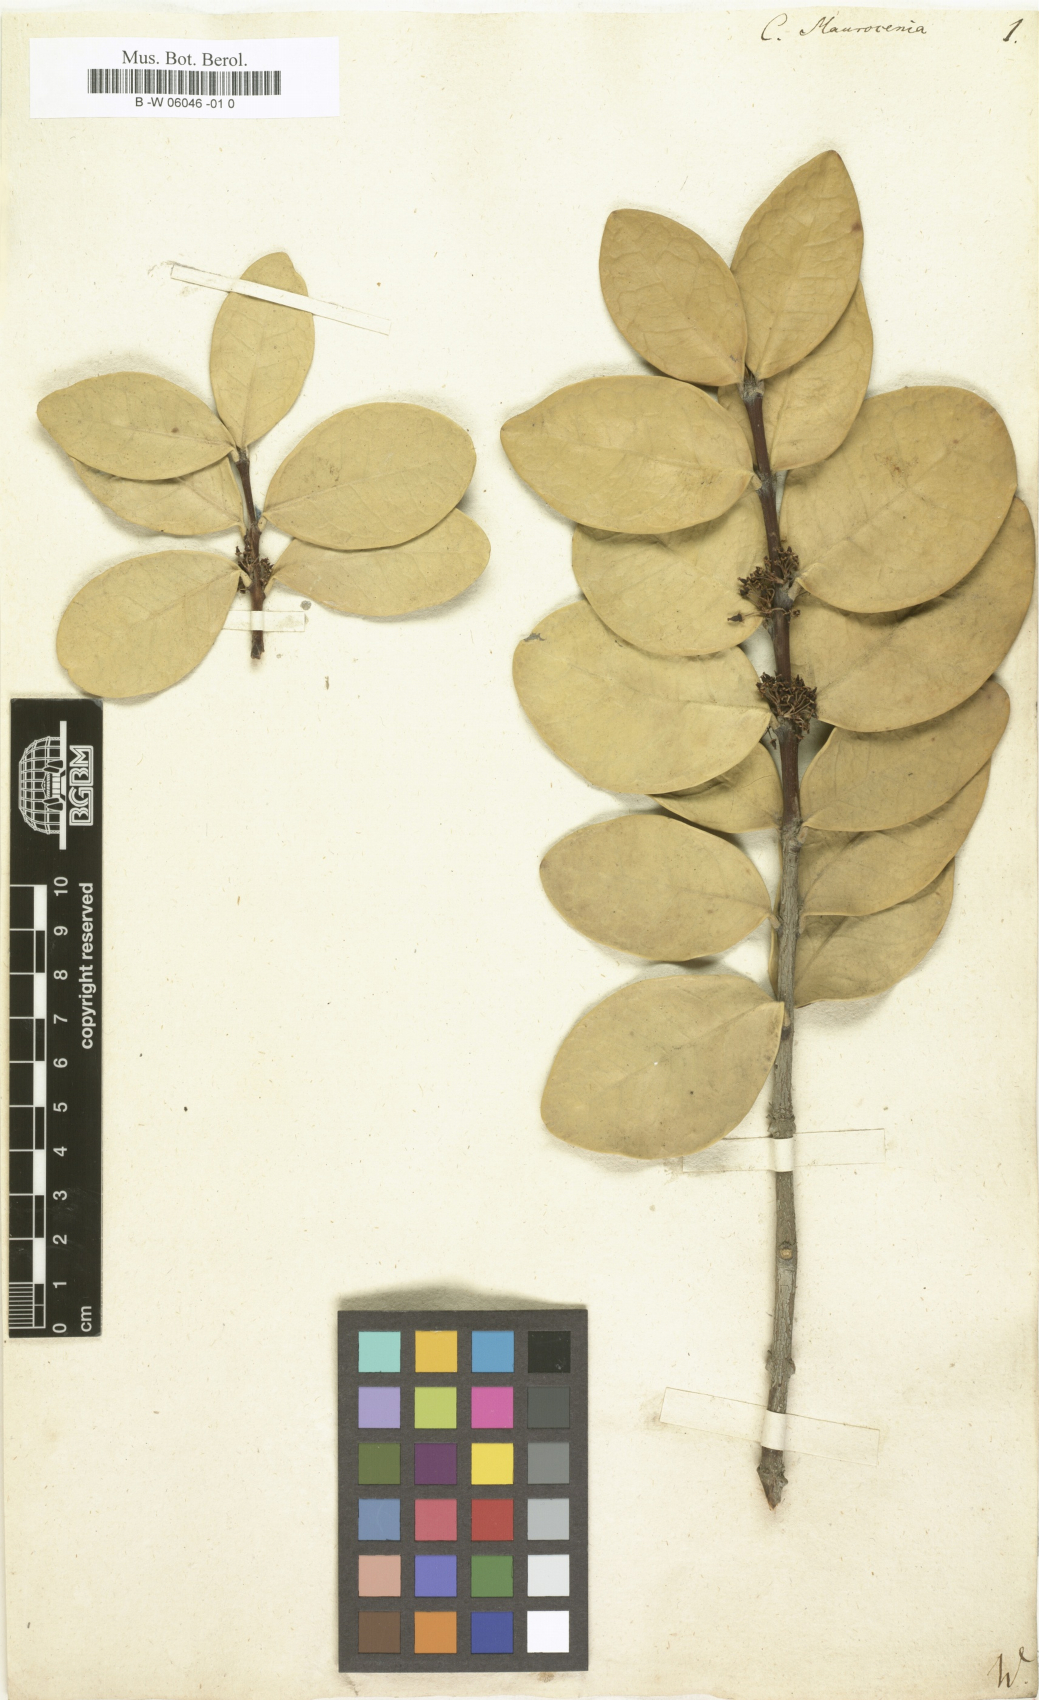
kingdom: Plantae
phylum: Tracheophyta
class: Magnoliopsida
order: Celastrales
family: Celastraceae
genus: Maurocenia
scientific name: Maurocenia frangula
